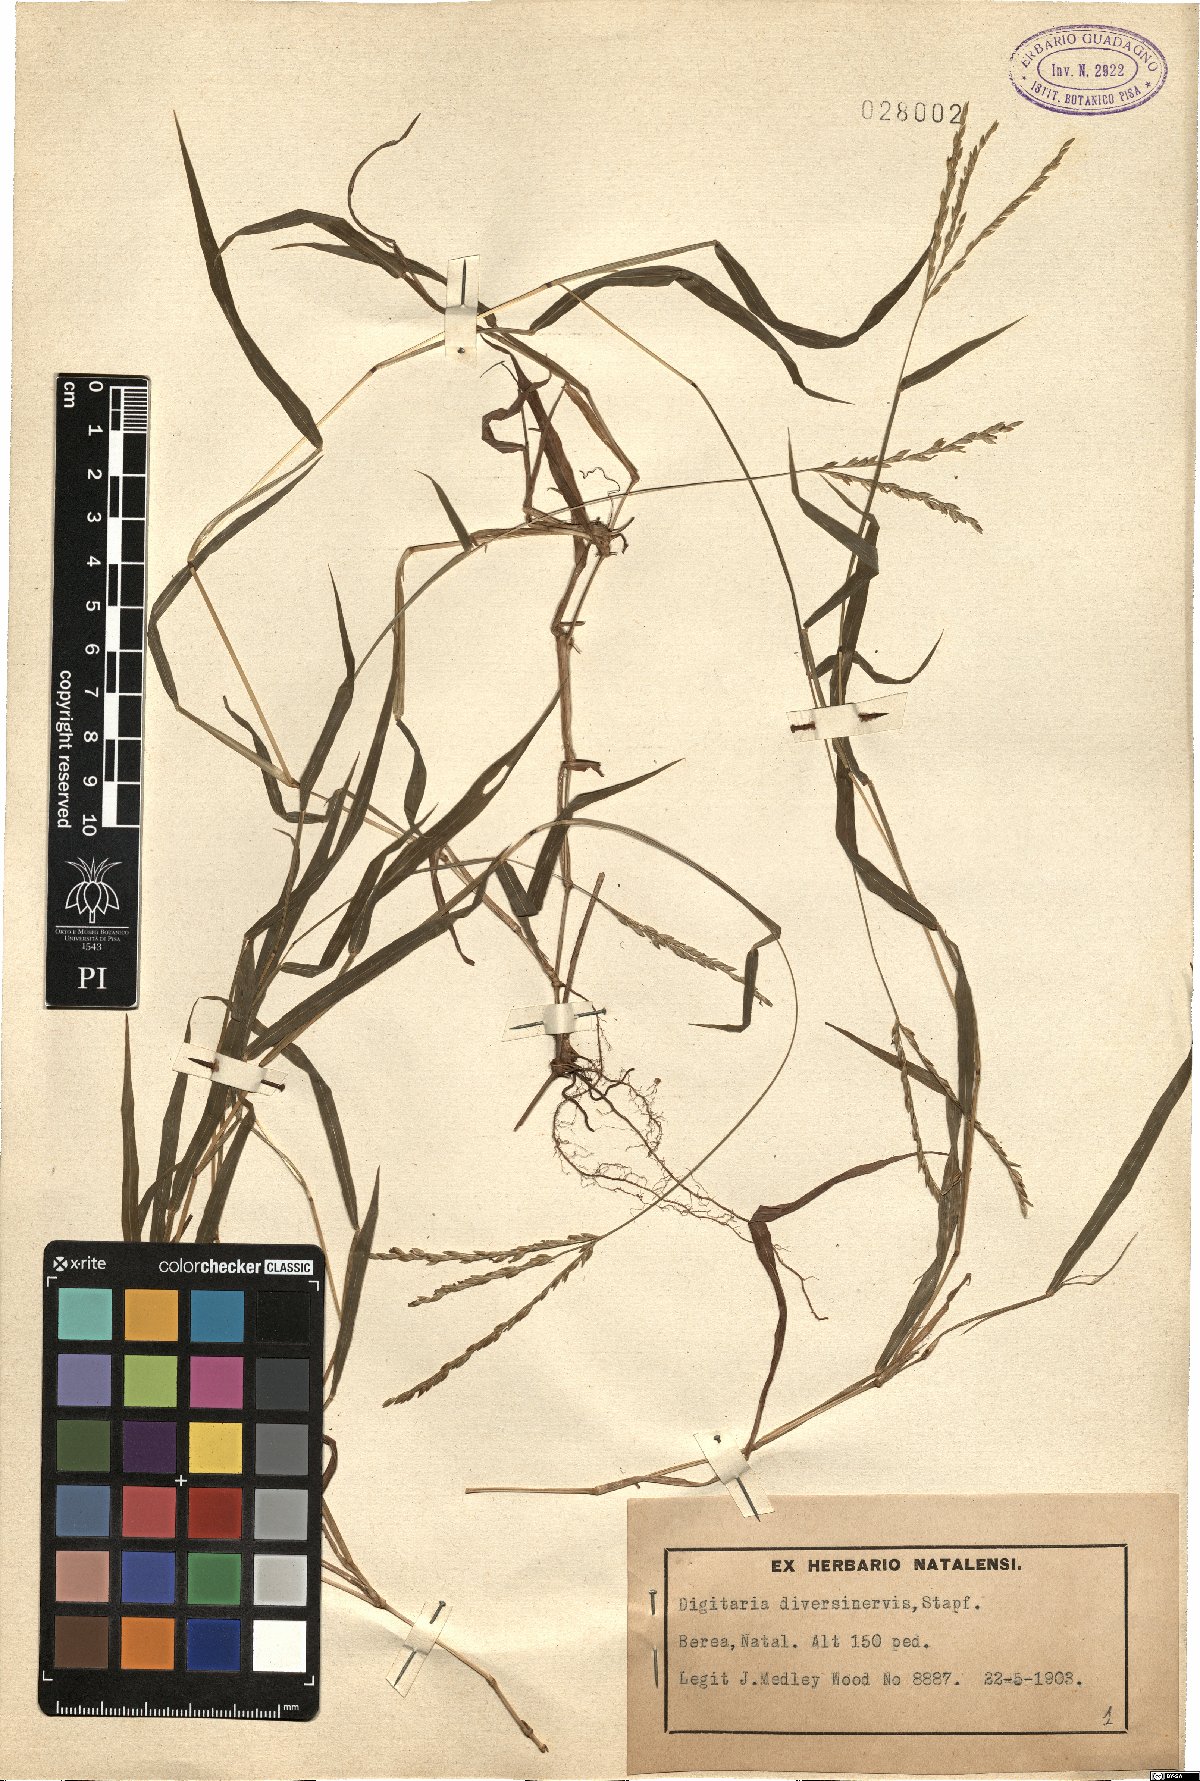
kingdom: Plantae
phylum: Tracheophyta
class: Liliopsida
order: Poales
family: Poaceae
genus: Digitaria
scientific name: Digitaria diversinervis
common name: Richmond finger grass
